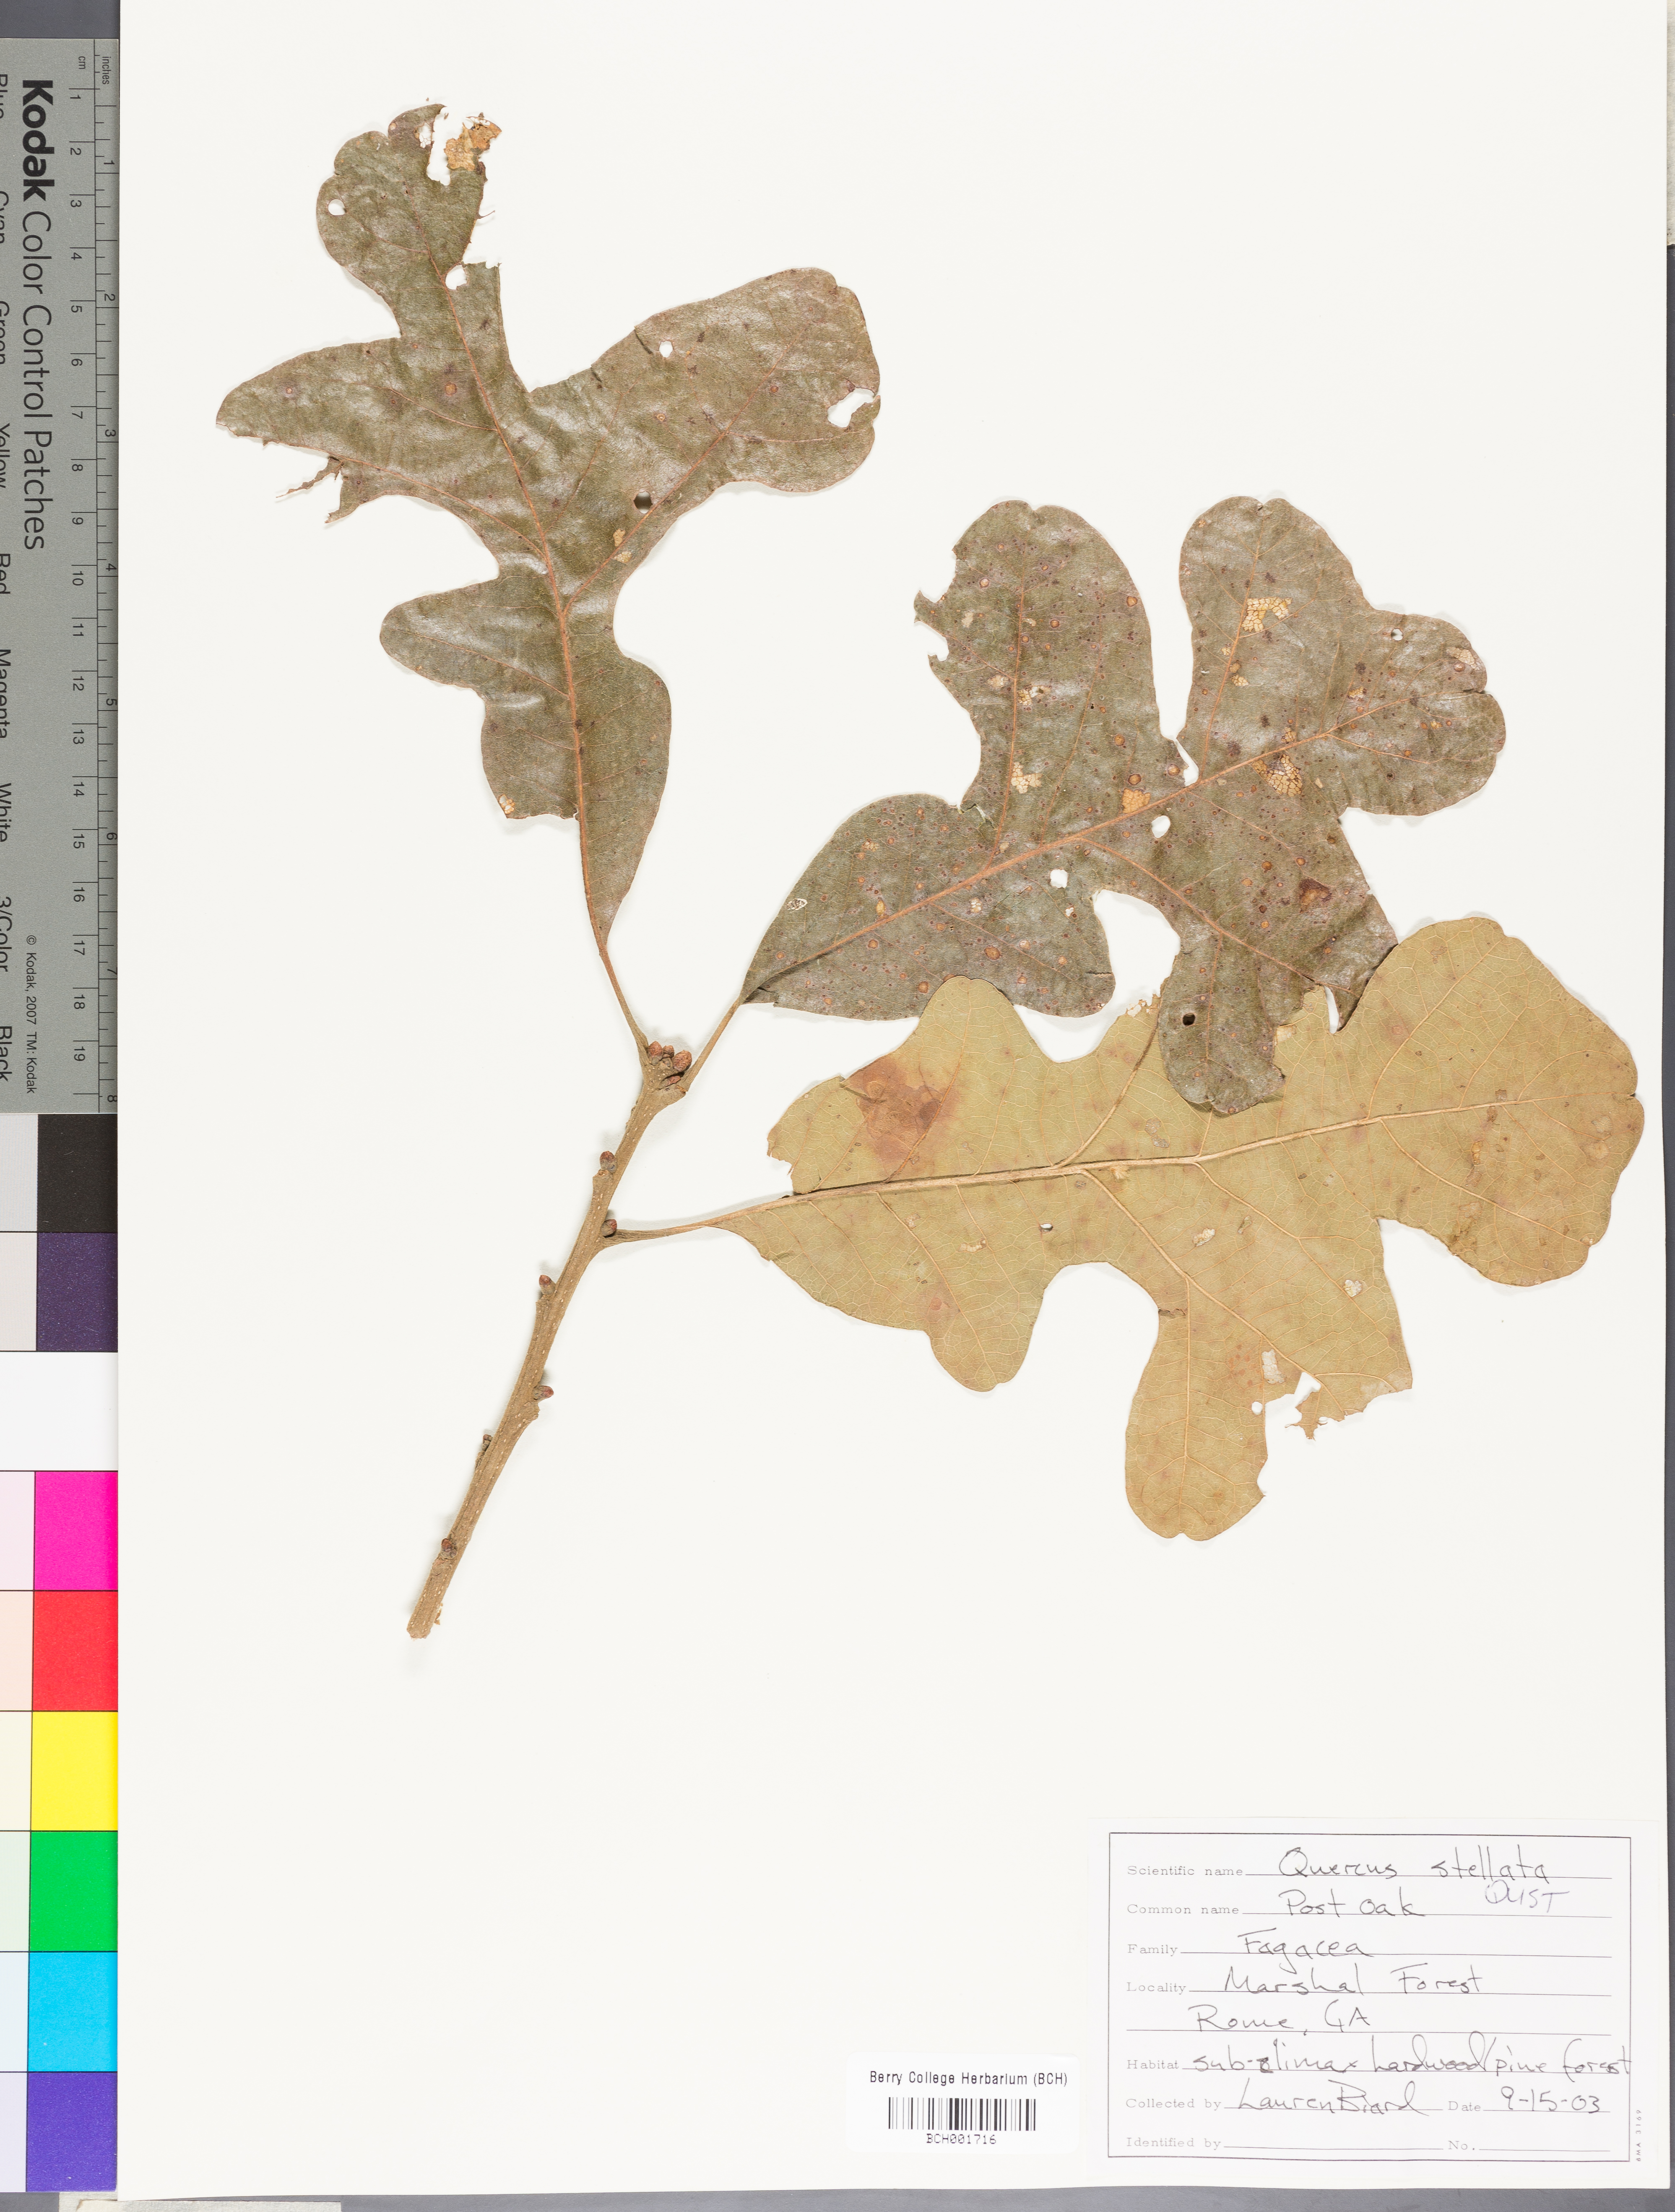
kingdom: Plantae
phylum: Tracheophyta
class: Magnoliopsida
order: Fagales
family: Fagaceae
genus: Quercus
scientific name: Quercus stellata
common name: Post oak
